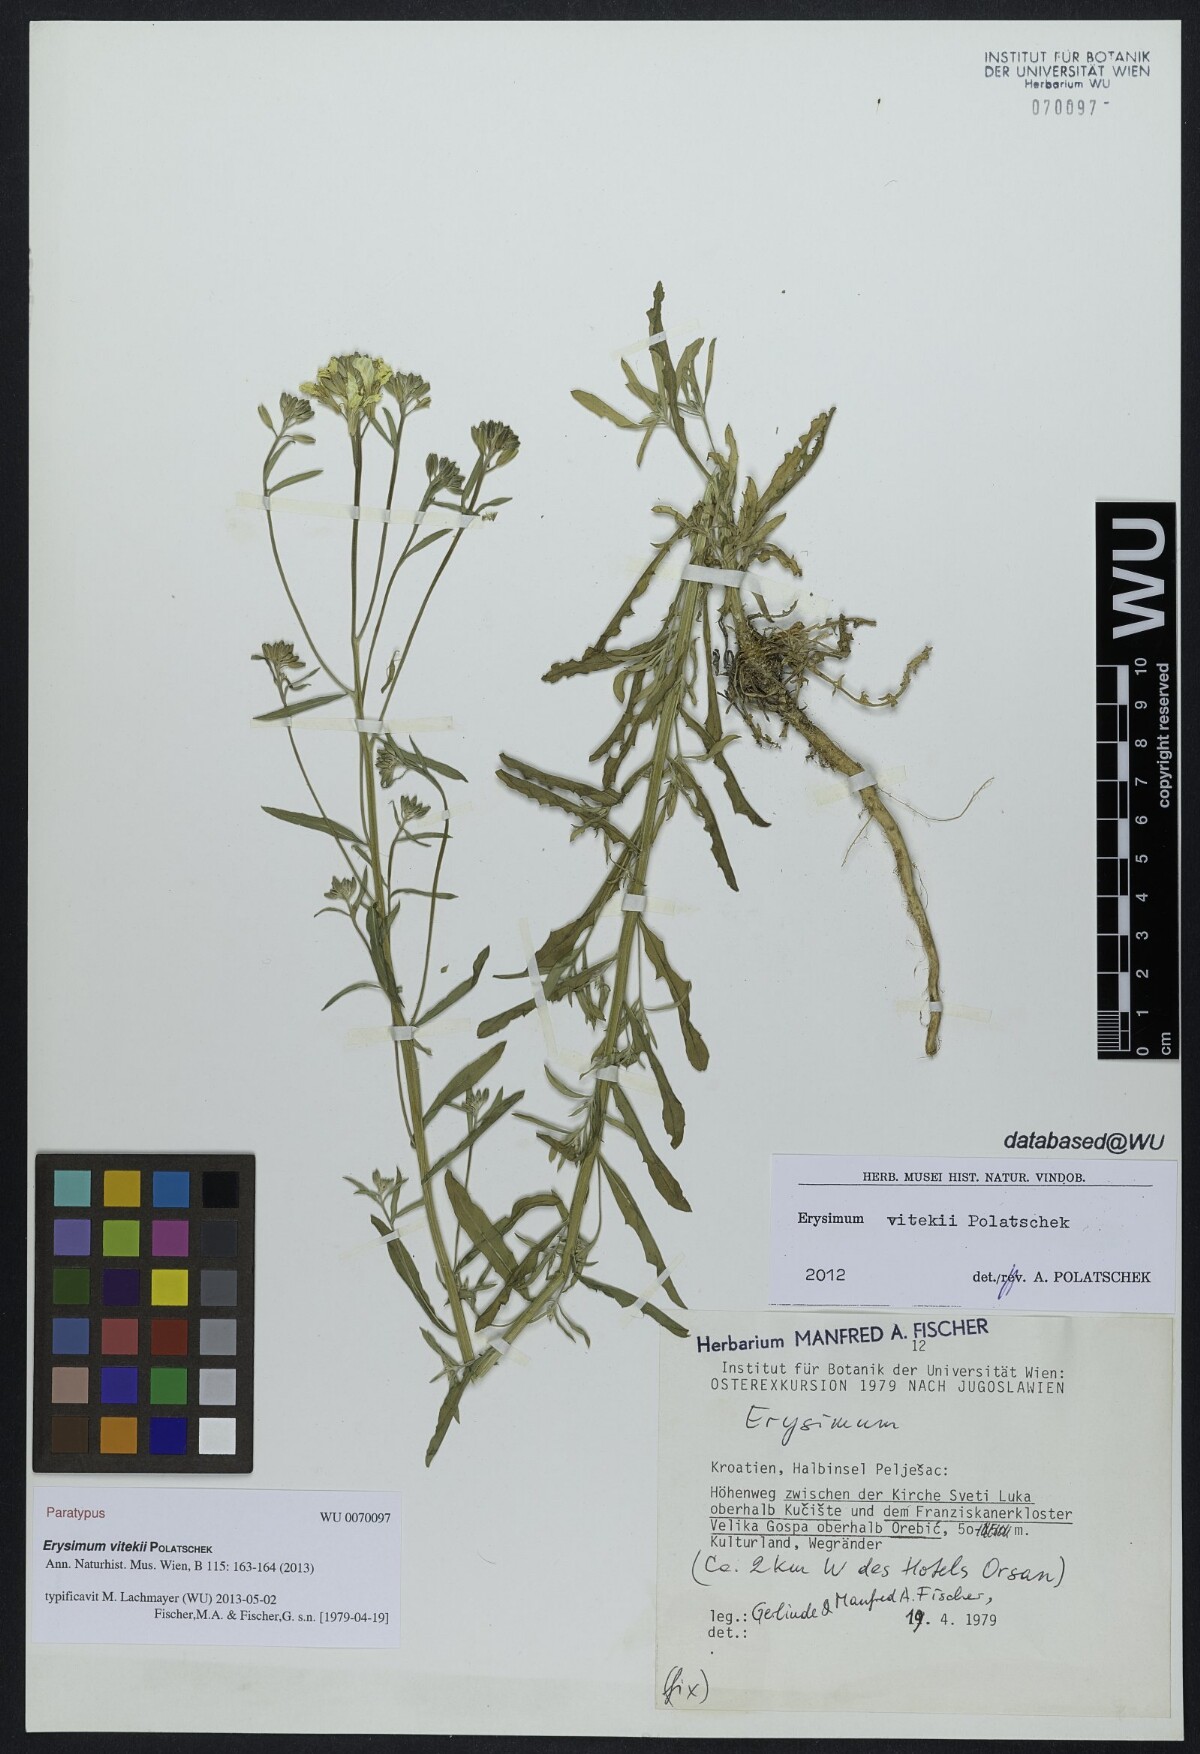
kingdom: Plantae
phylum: Tracheophyta
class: Magnoliopsida
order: Brassicales
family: Brassicaceae
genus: Erysimum
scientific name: Erysimum vitekii
